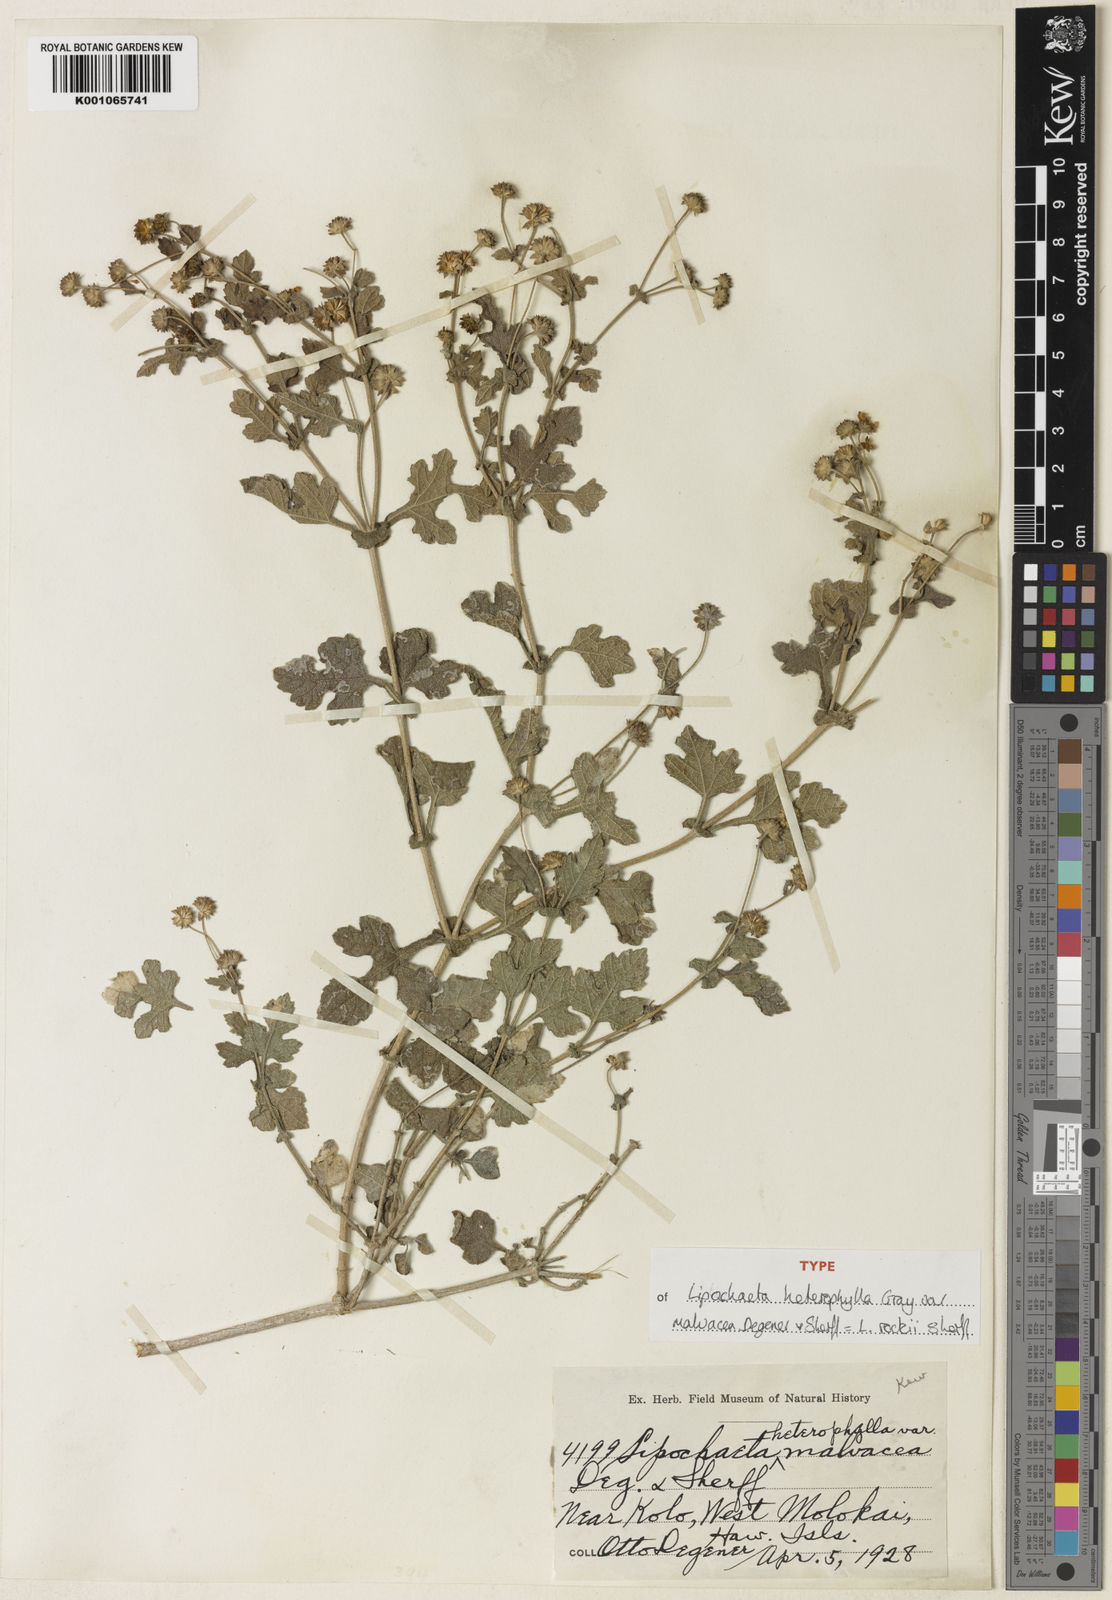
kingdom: Plantae
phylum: Tracheophyta
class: Magnoliopsida
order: Asterales
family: Asteraceae
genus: Lipochaeta
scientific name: Lipochaeta rockii
